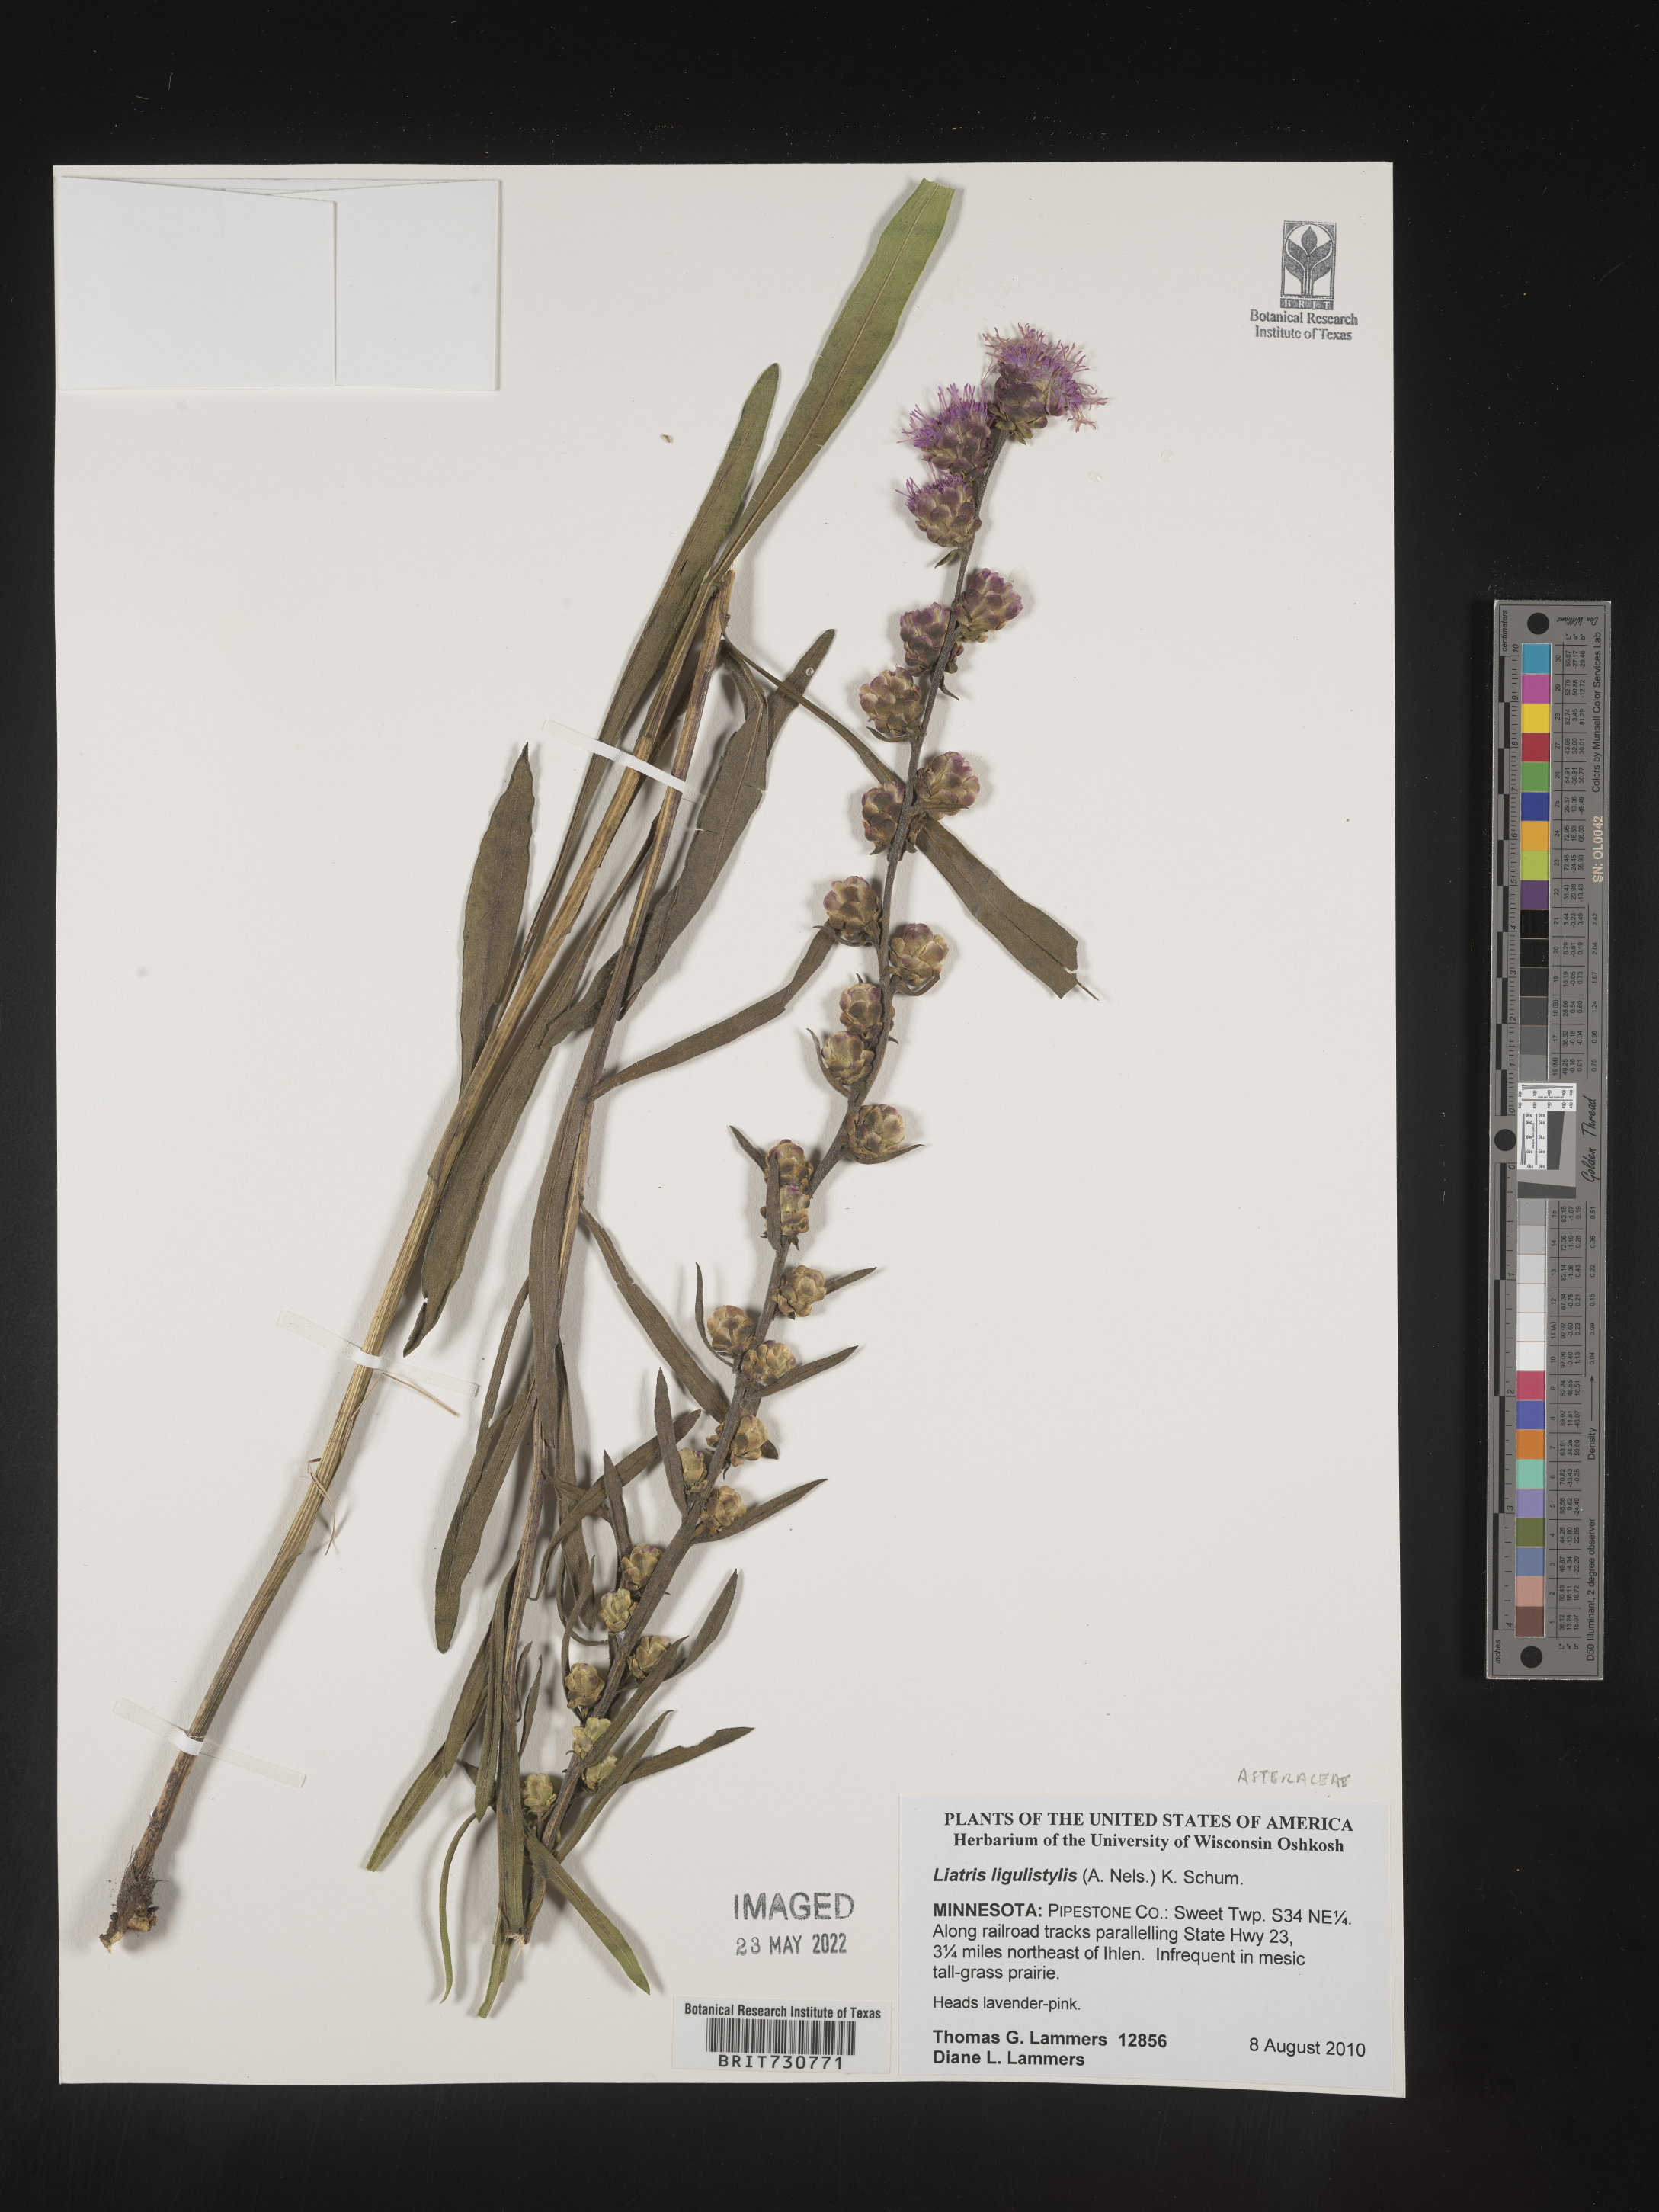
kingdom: Plantae
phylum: Tracheophyta
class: Magnoliopsida
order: Asterales
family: Asteraceae
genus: Liatris
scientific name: Liatris ligulistylis
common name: Northern plains gayfeather
